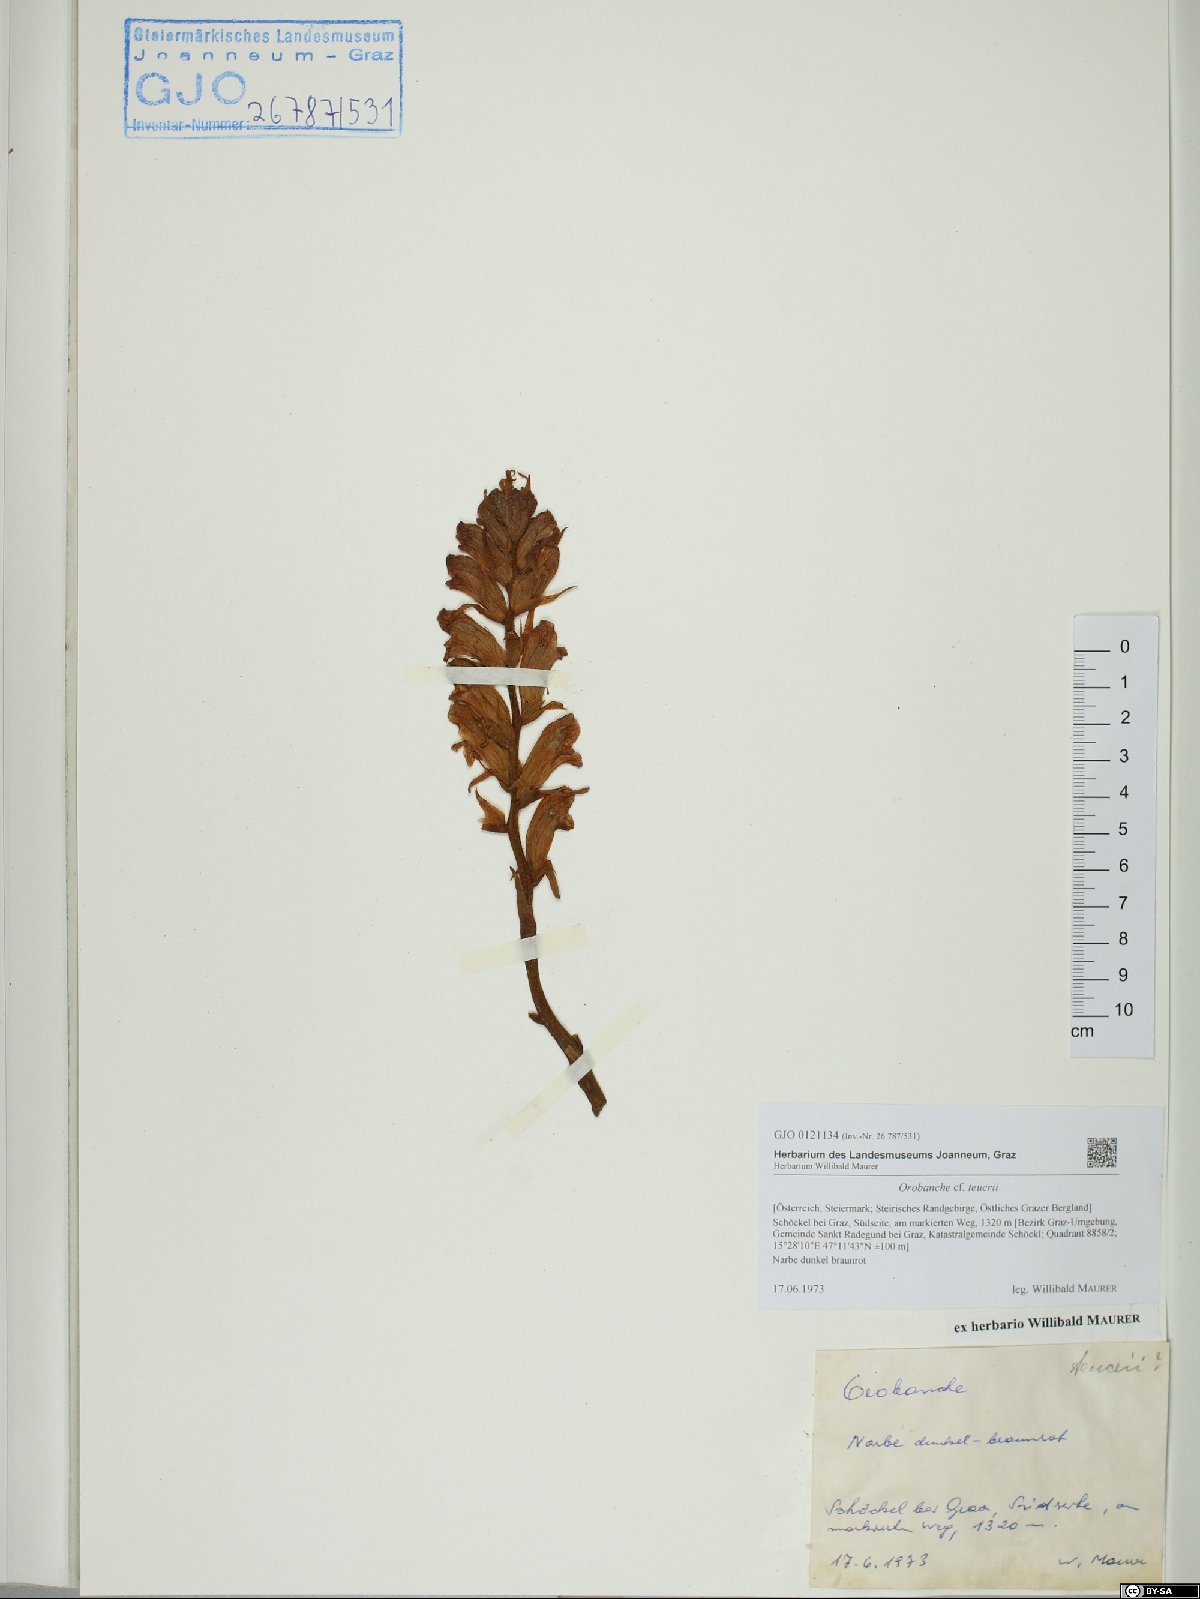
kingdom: Plantae
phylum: Tracheophyta
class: Magnoliopsida
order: Lamiales
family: Orobanchaceae
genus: Orobanche
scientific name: Orobanche teucrii
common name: Germander broomrape
